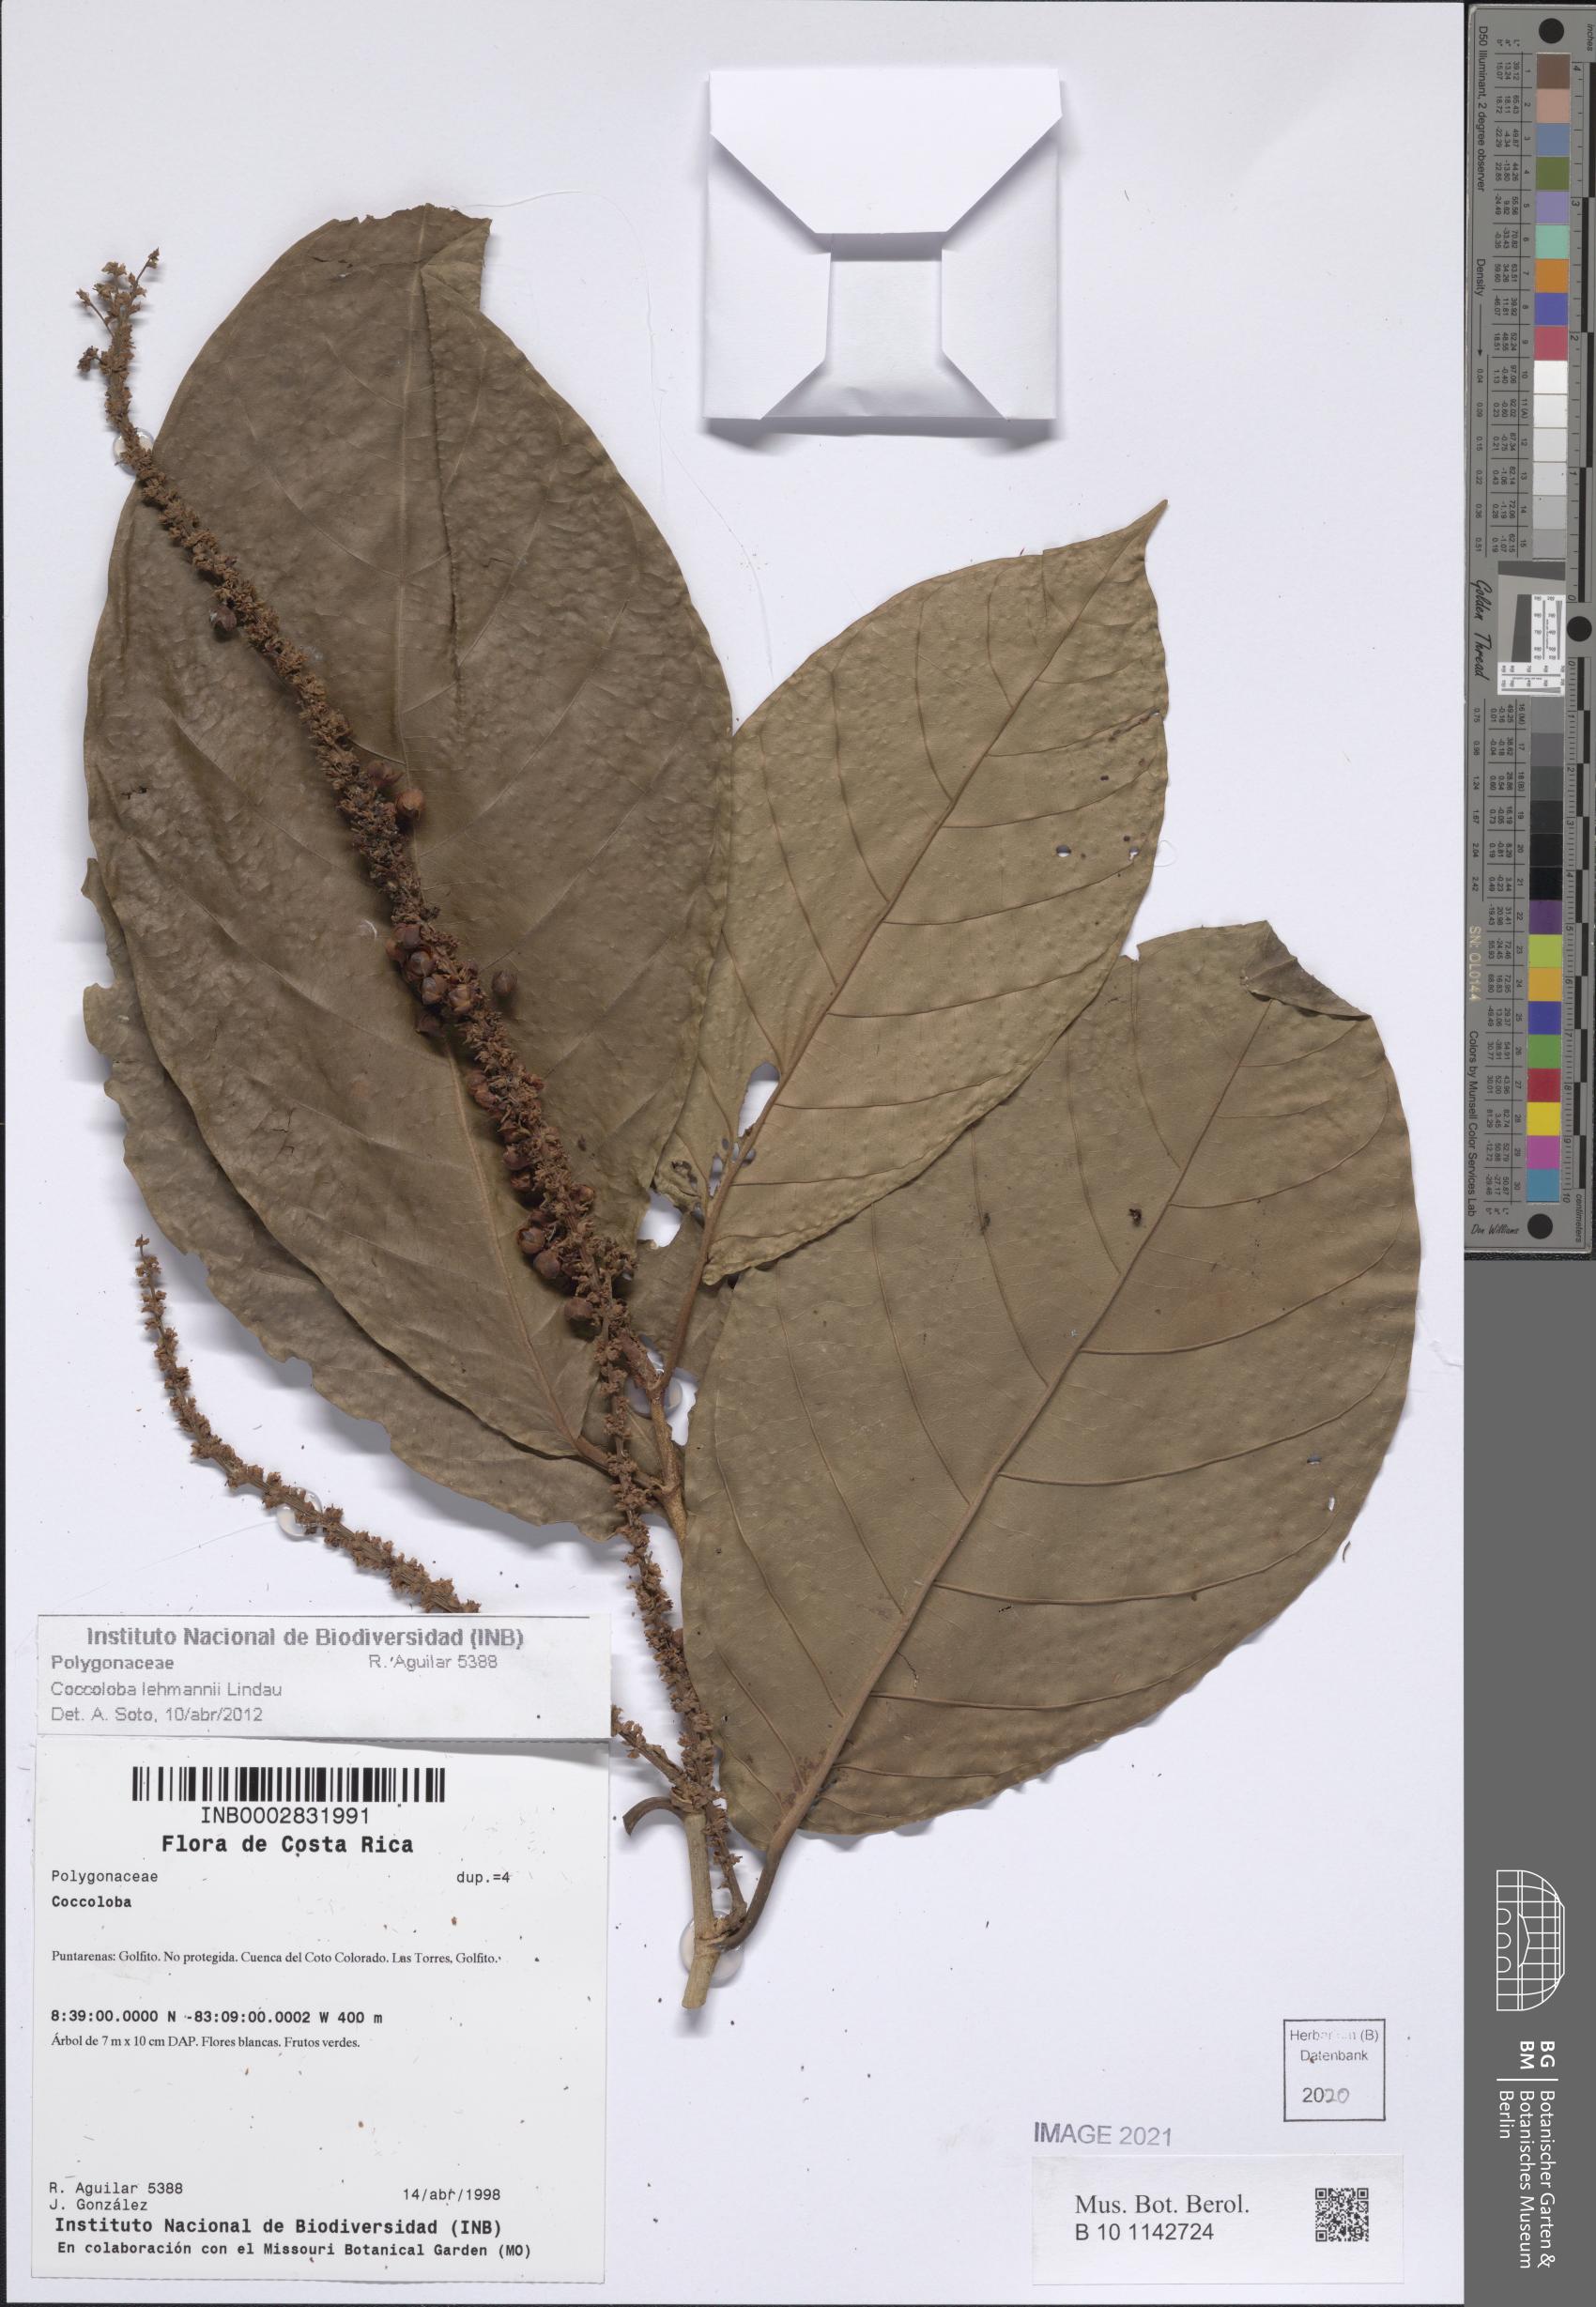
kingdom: Plantae
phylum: Tracheophyta
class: Magnoliopsida
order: Caryophyllales
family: Polygonaceae
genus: Coccoloba
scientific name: Coccoloba lehmannii
